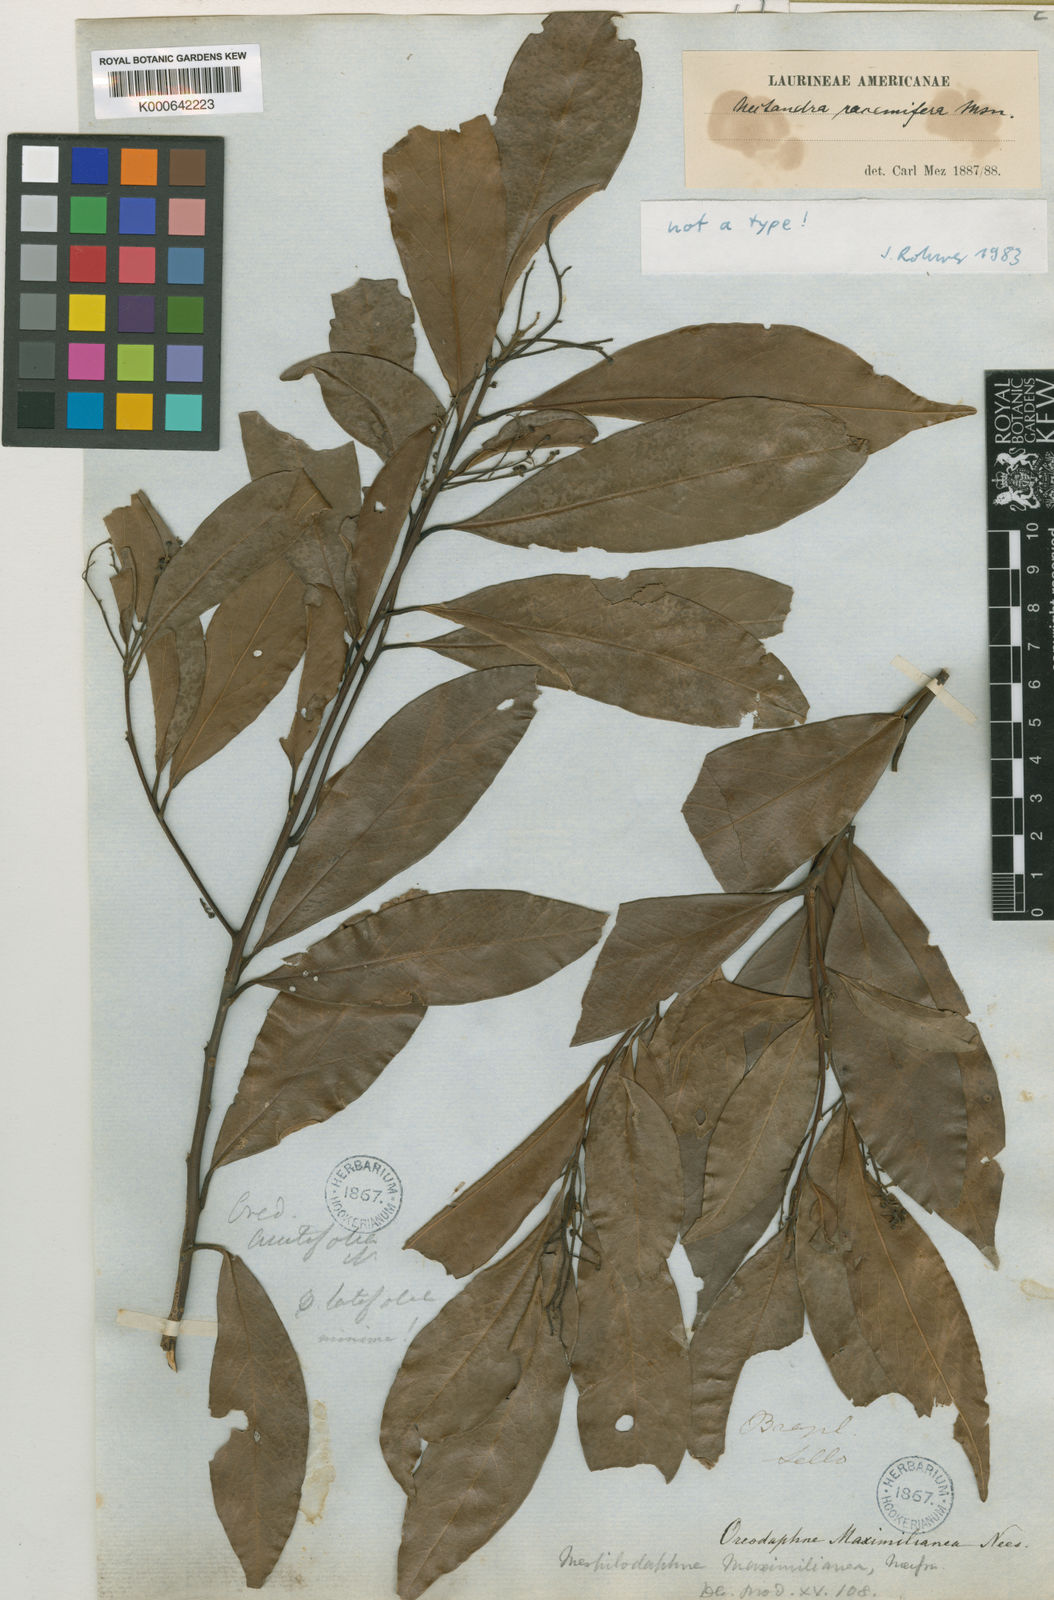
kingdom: Plantae
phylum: Tracheophyta
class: Magnoliopsida
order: Laurales
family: Lauraceae
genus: Nectandra
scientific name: Nectandra megapotamica
